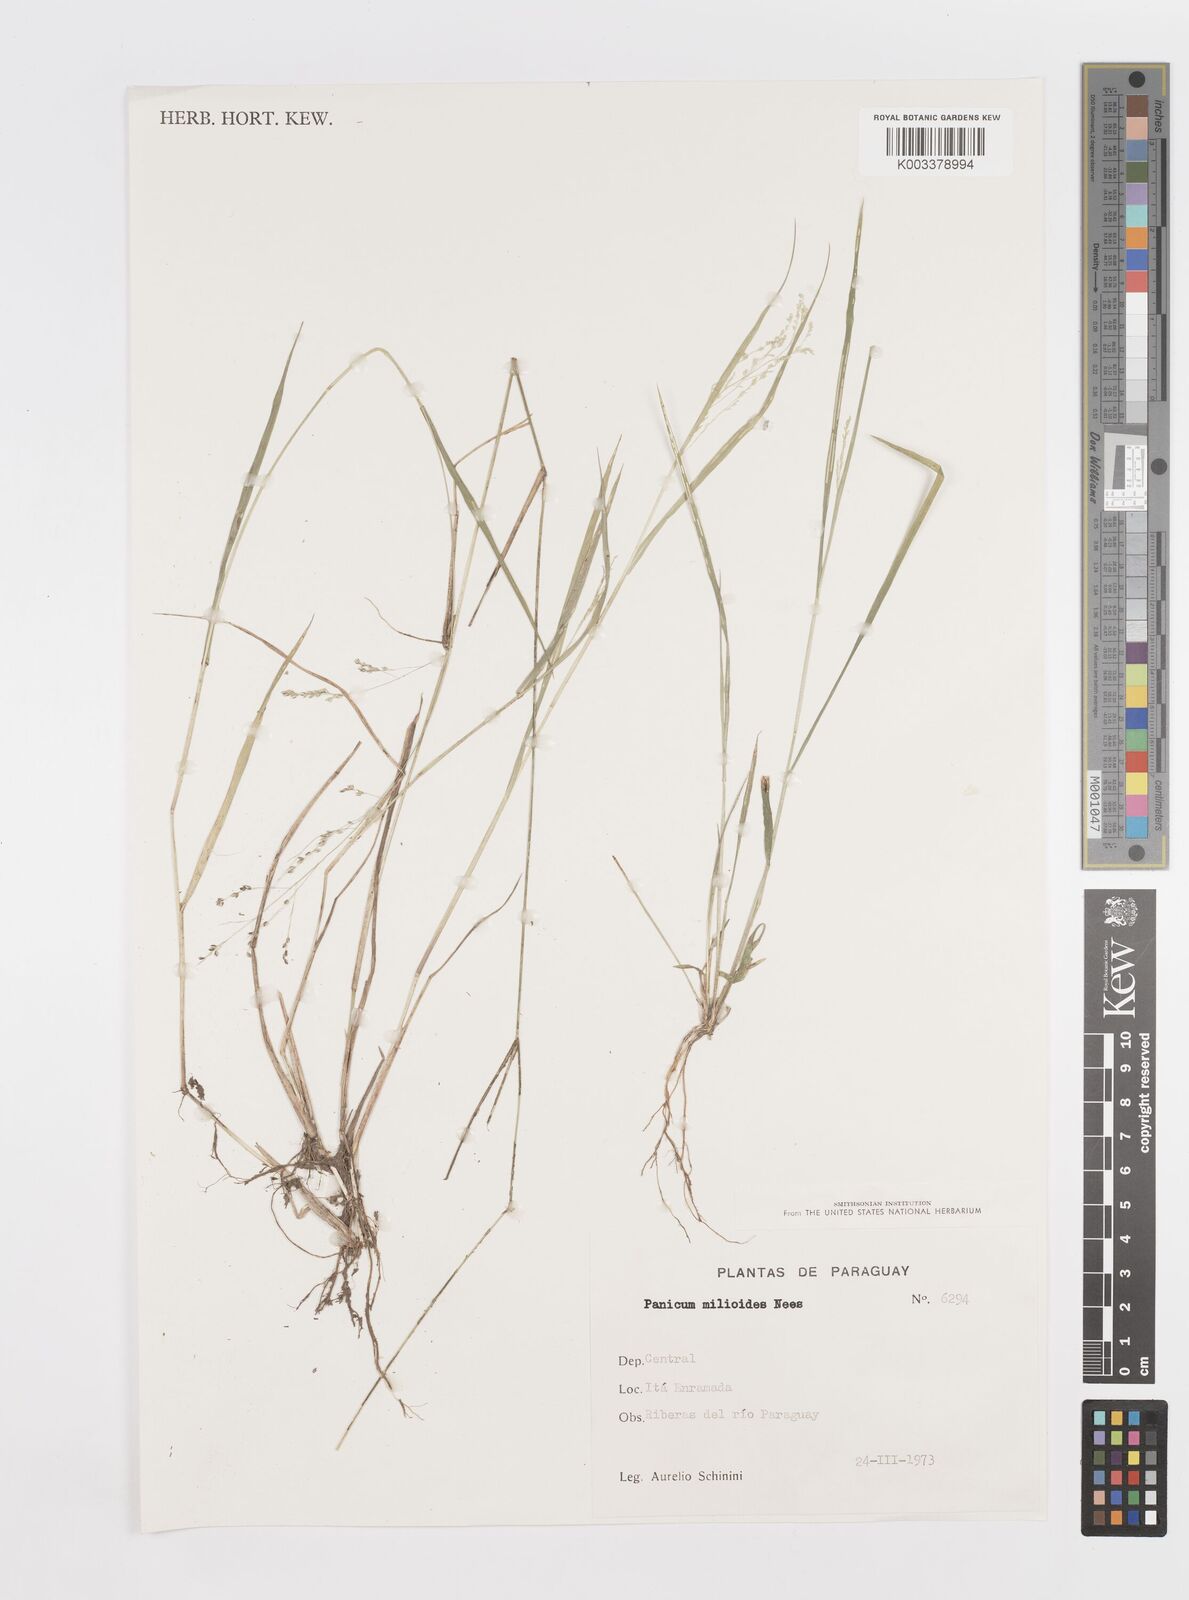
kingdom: Plantae
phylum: Tracheophyta
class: Liliopsida
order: Poales
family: Poaceae
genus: Steinchisma
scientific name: Steinchisma hians
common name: Gaping panic grass
